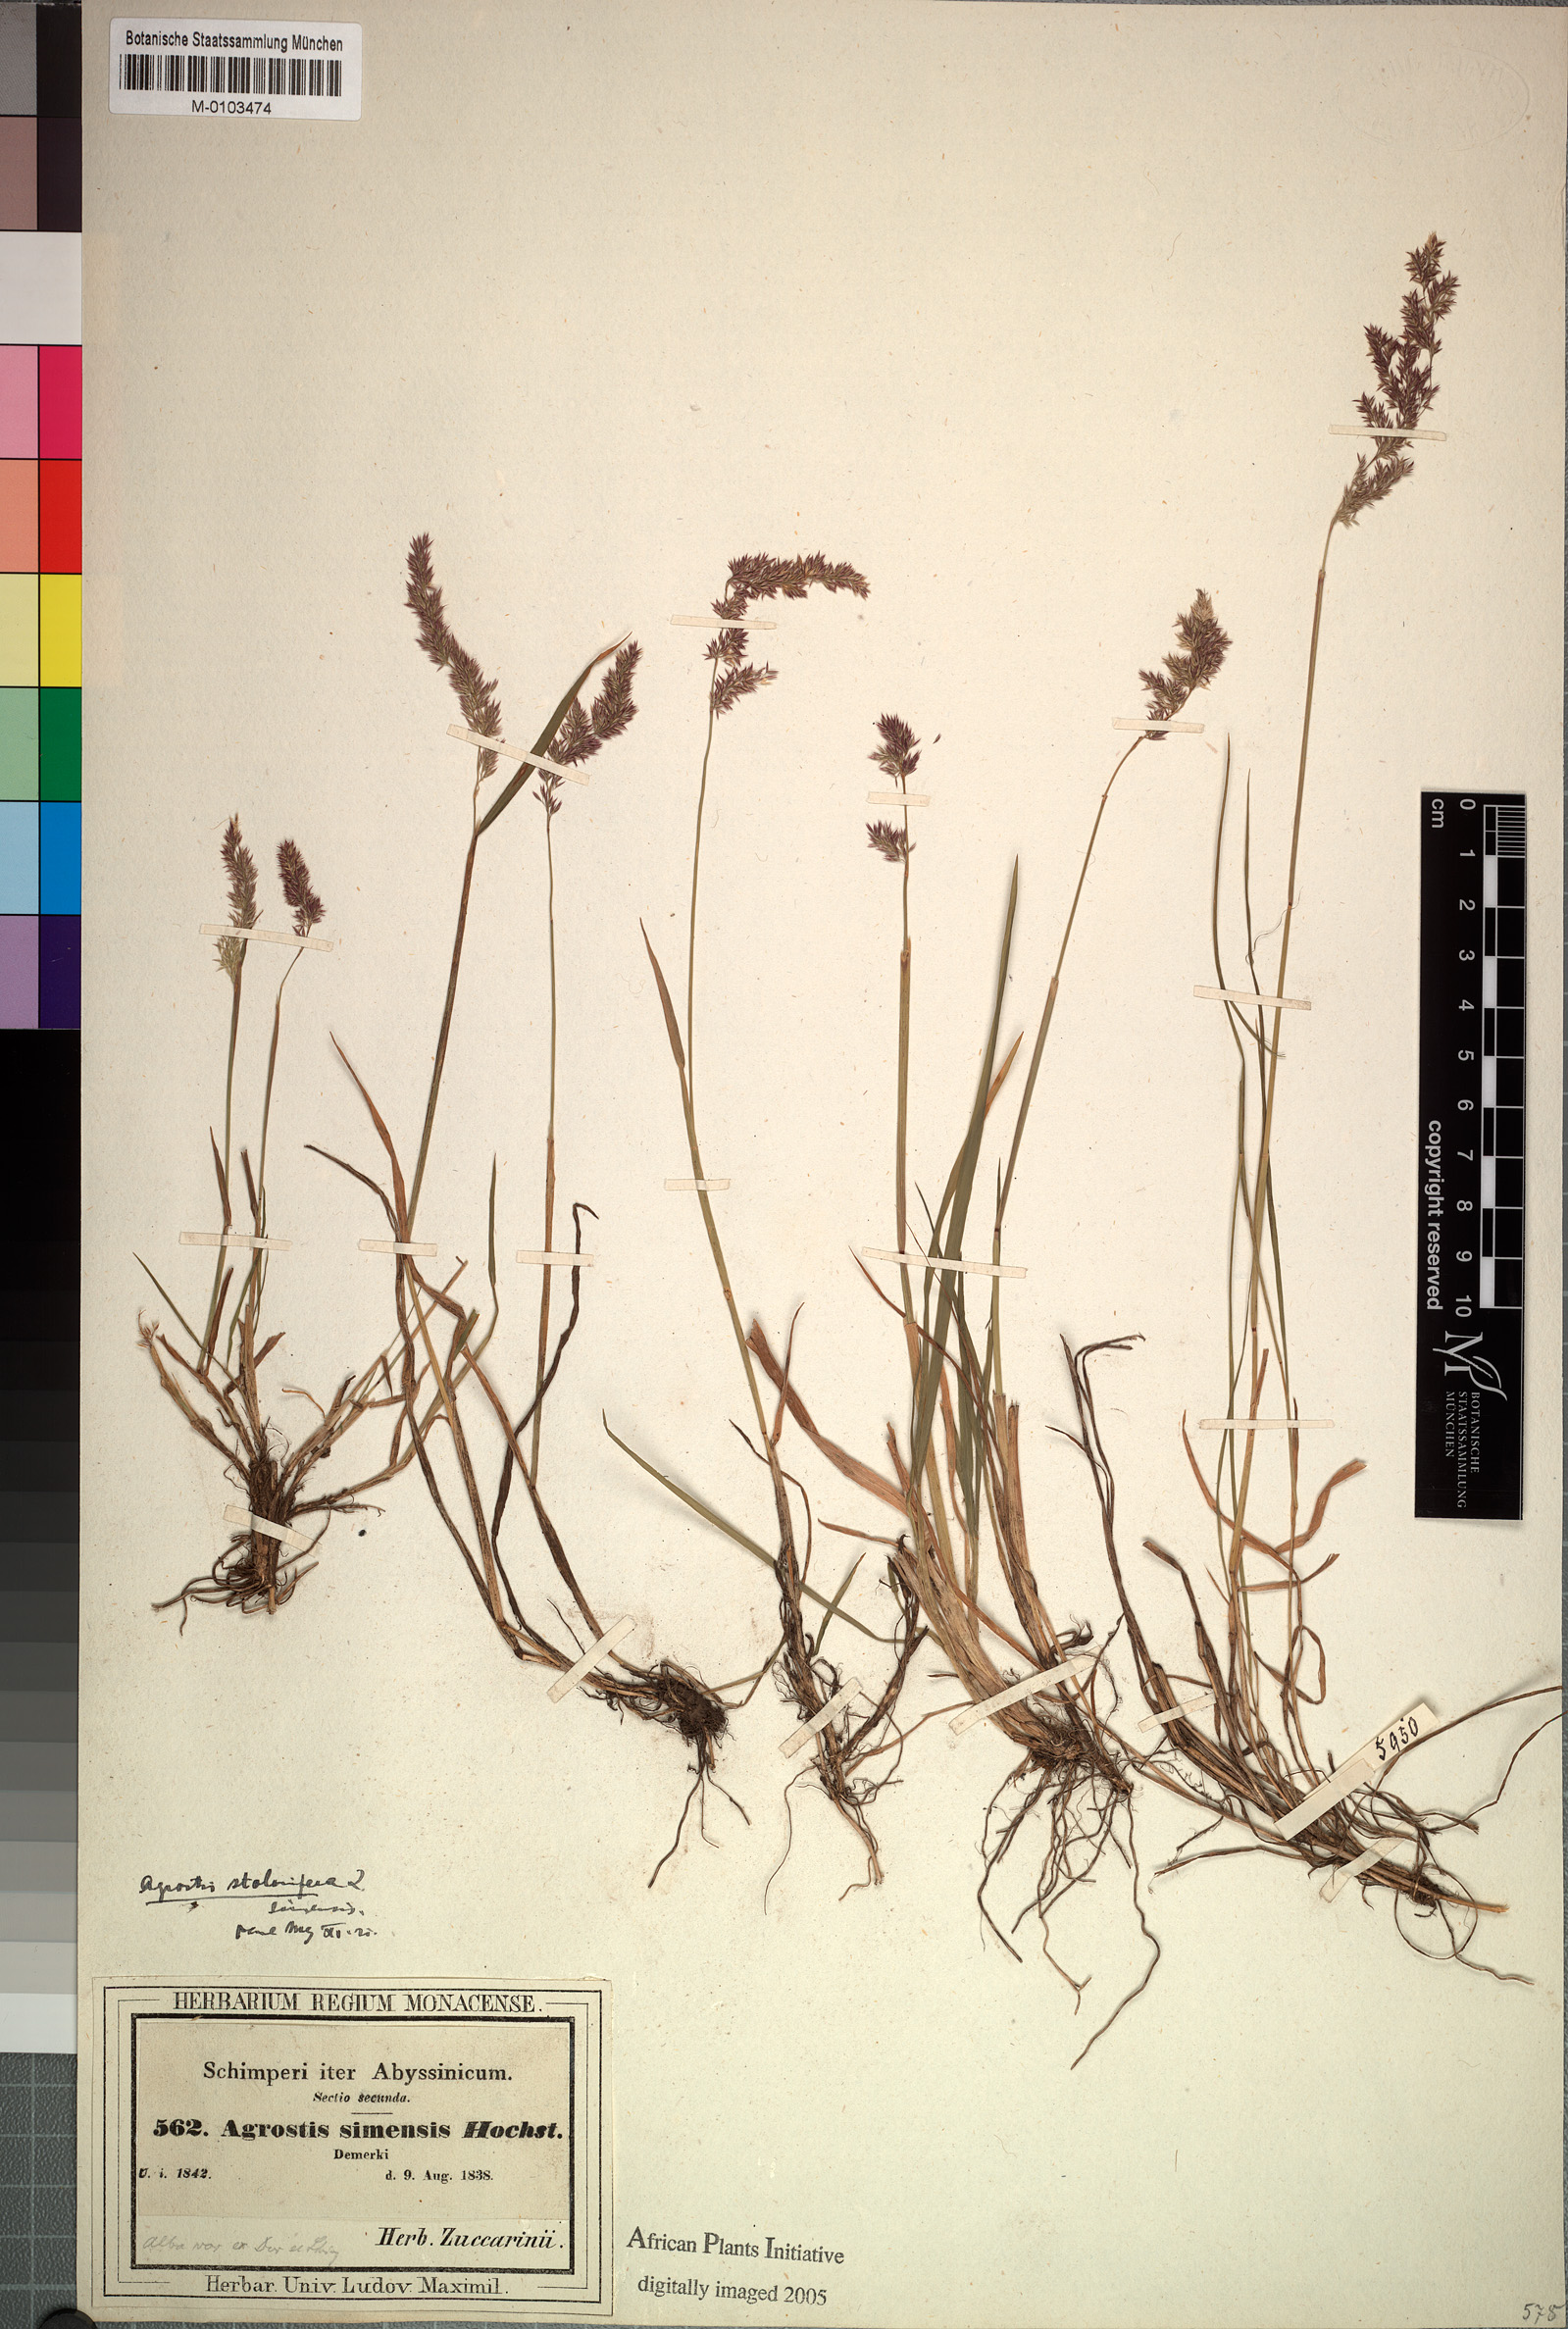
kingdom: Plantae
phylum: Tracheophyta
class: Liliopsida
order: Poales
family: Poaceae
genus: Polypogon
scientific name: Polypogon schimperianus
